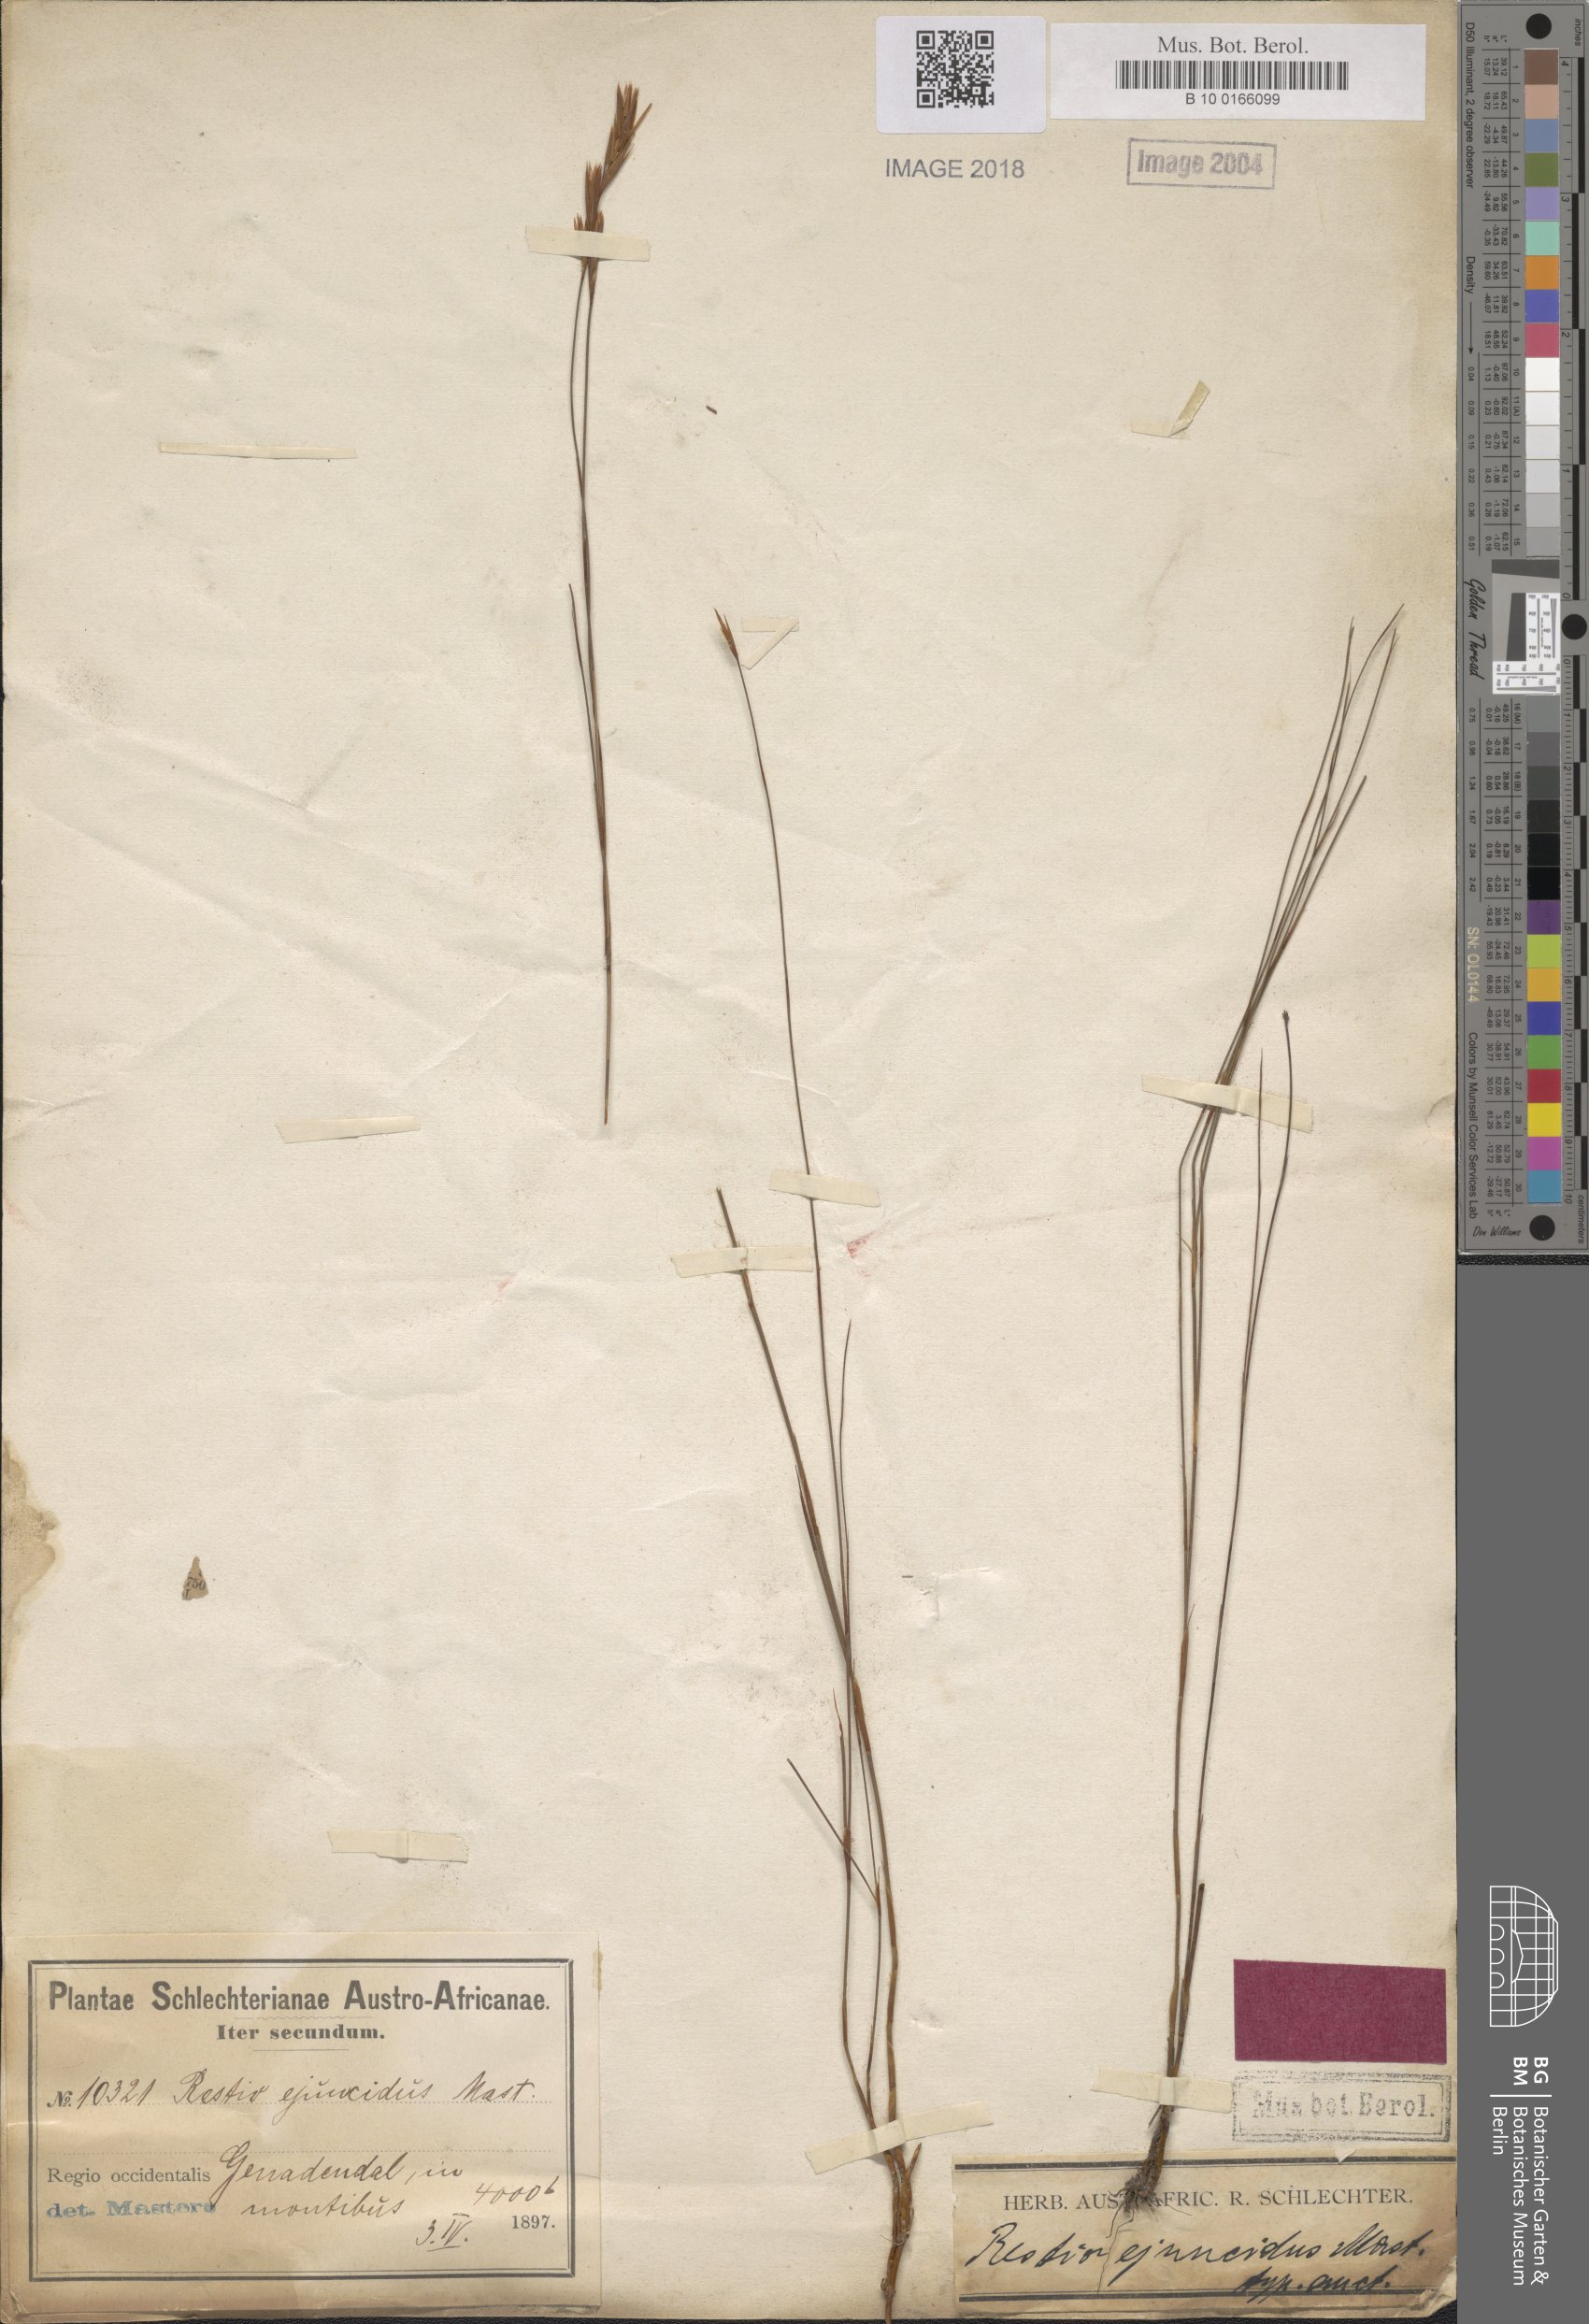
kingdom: Plantae
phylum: Tracheophyta
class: Liliopsida
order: Poales
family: Restionaceae
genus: Restio
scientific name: Restio ejuncidus
